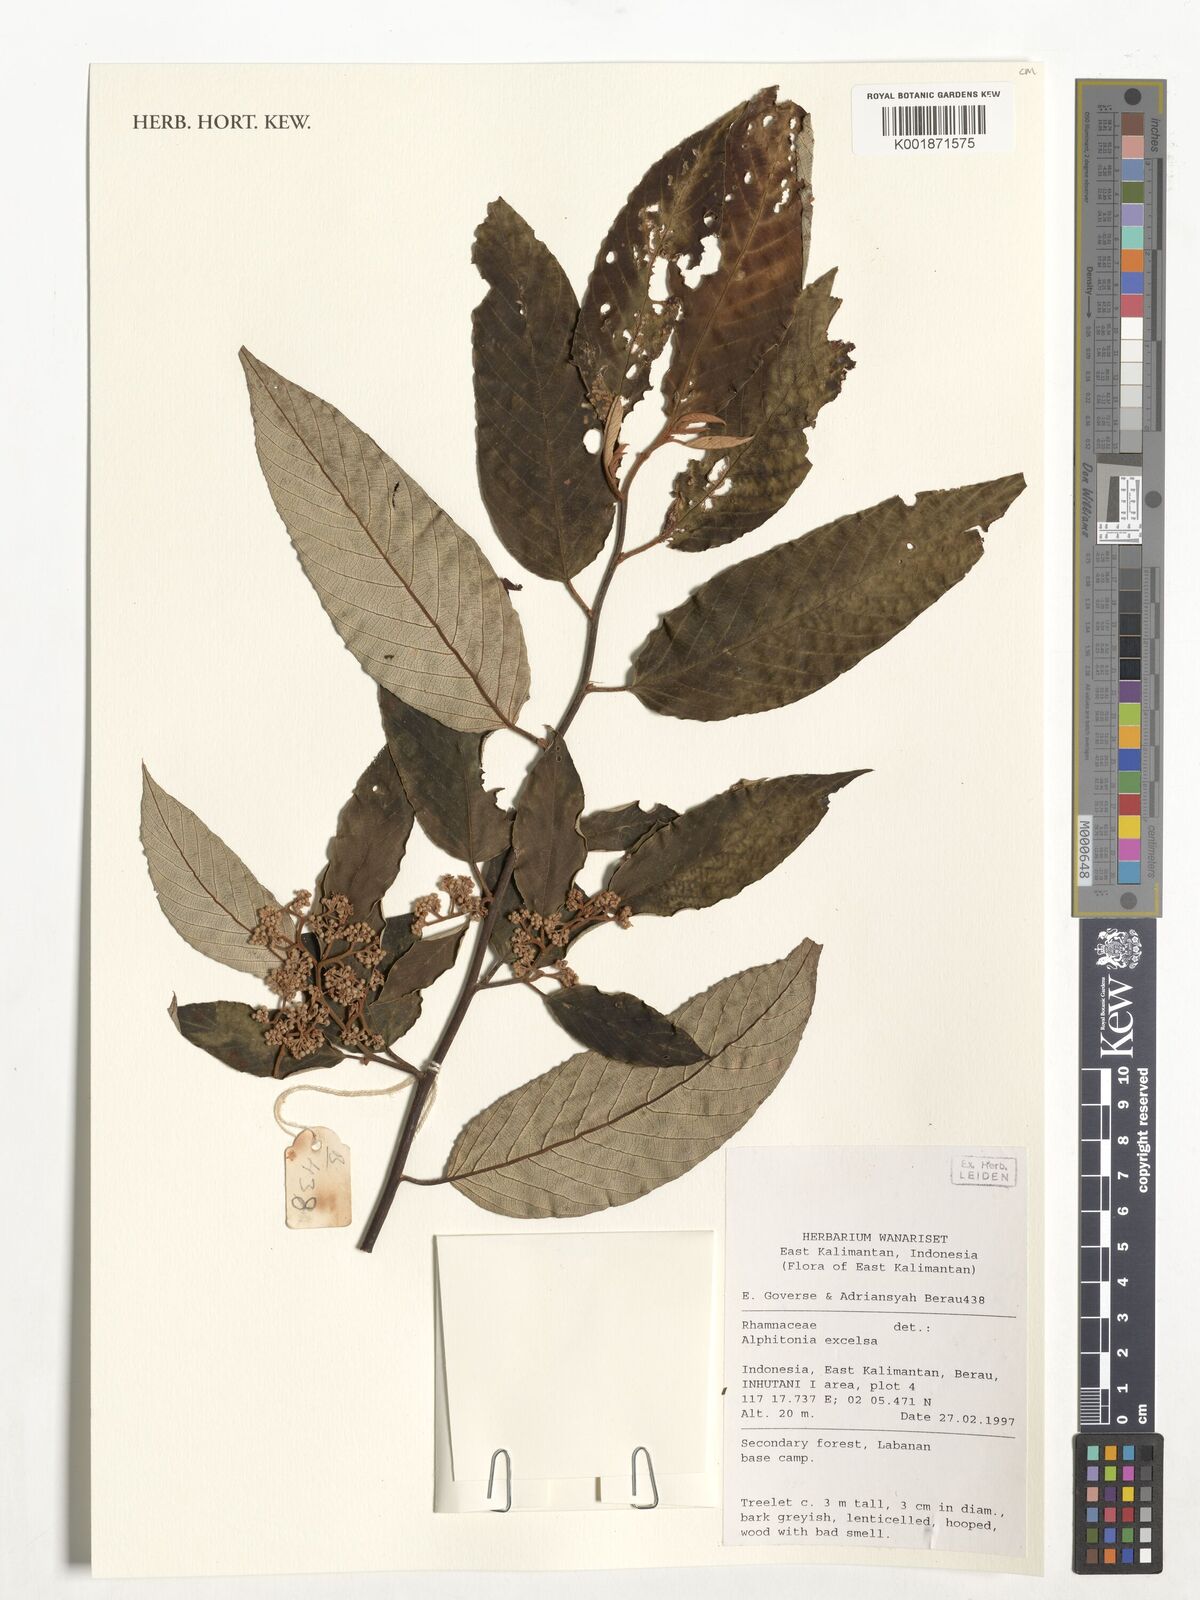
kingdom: Plantae
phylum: Tracheophyta
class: Magnoliopsida
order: Rosales
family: Rhamnaceae
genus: Alphitonia
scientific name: Alphitonia excelsa
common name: Red ash
